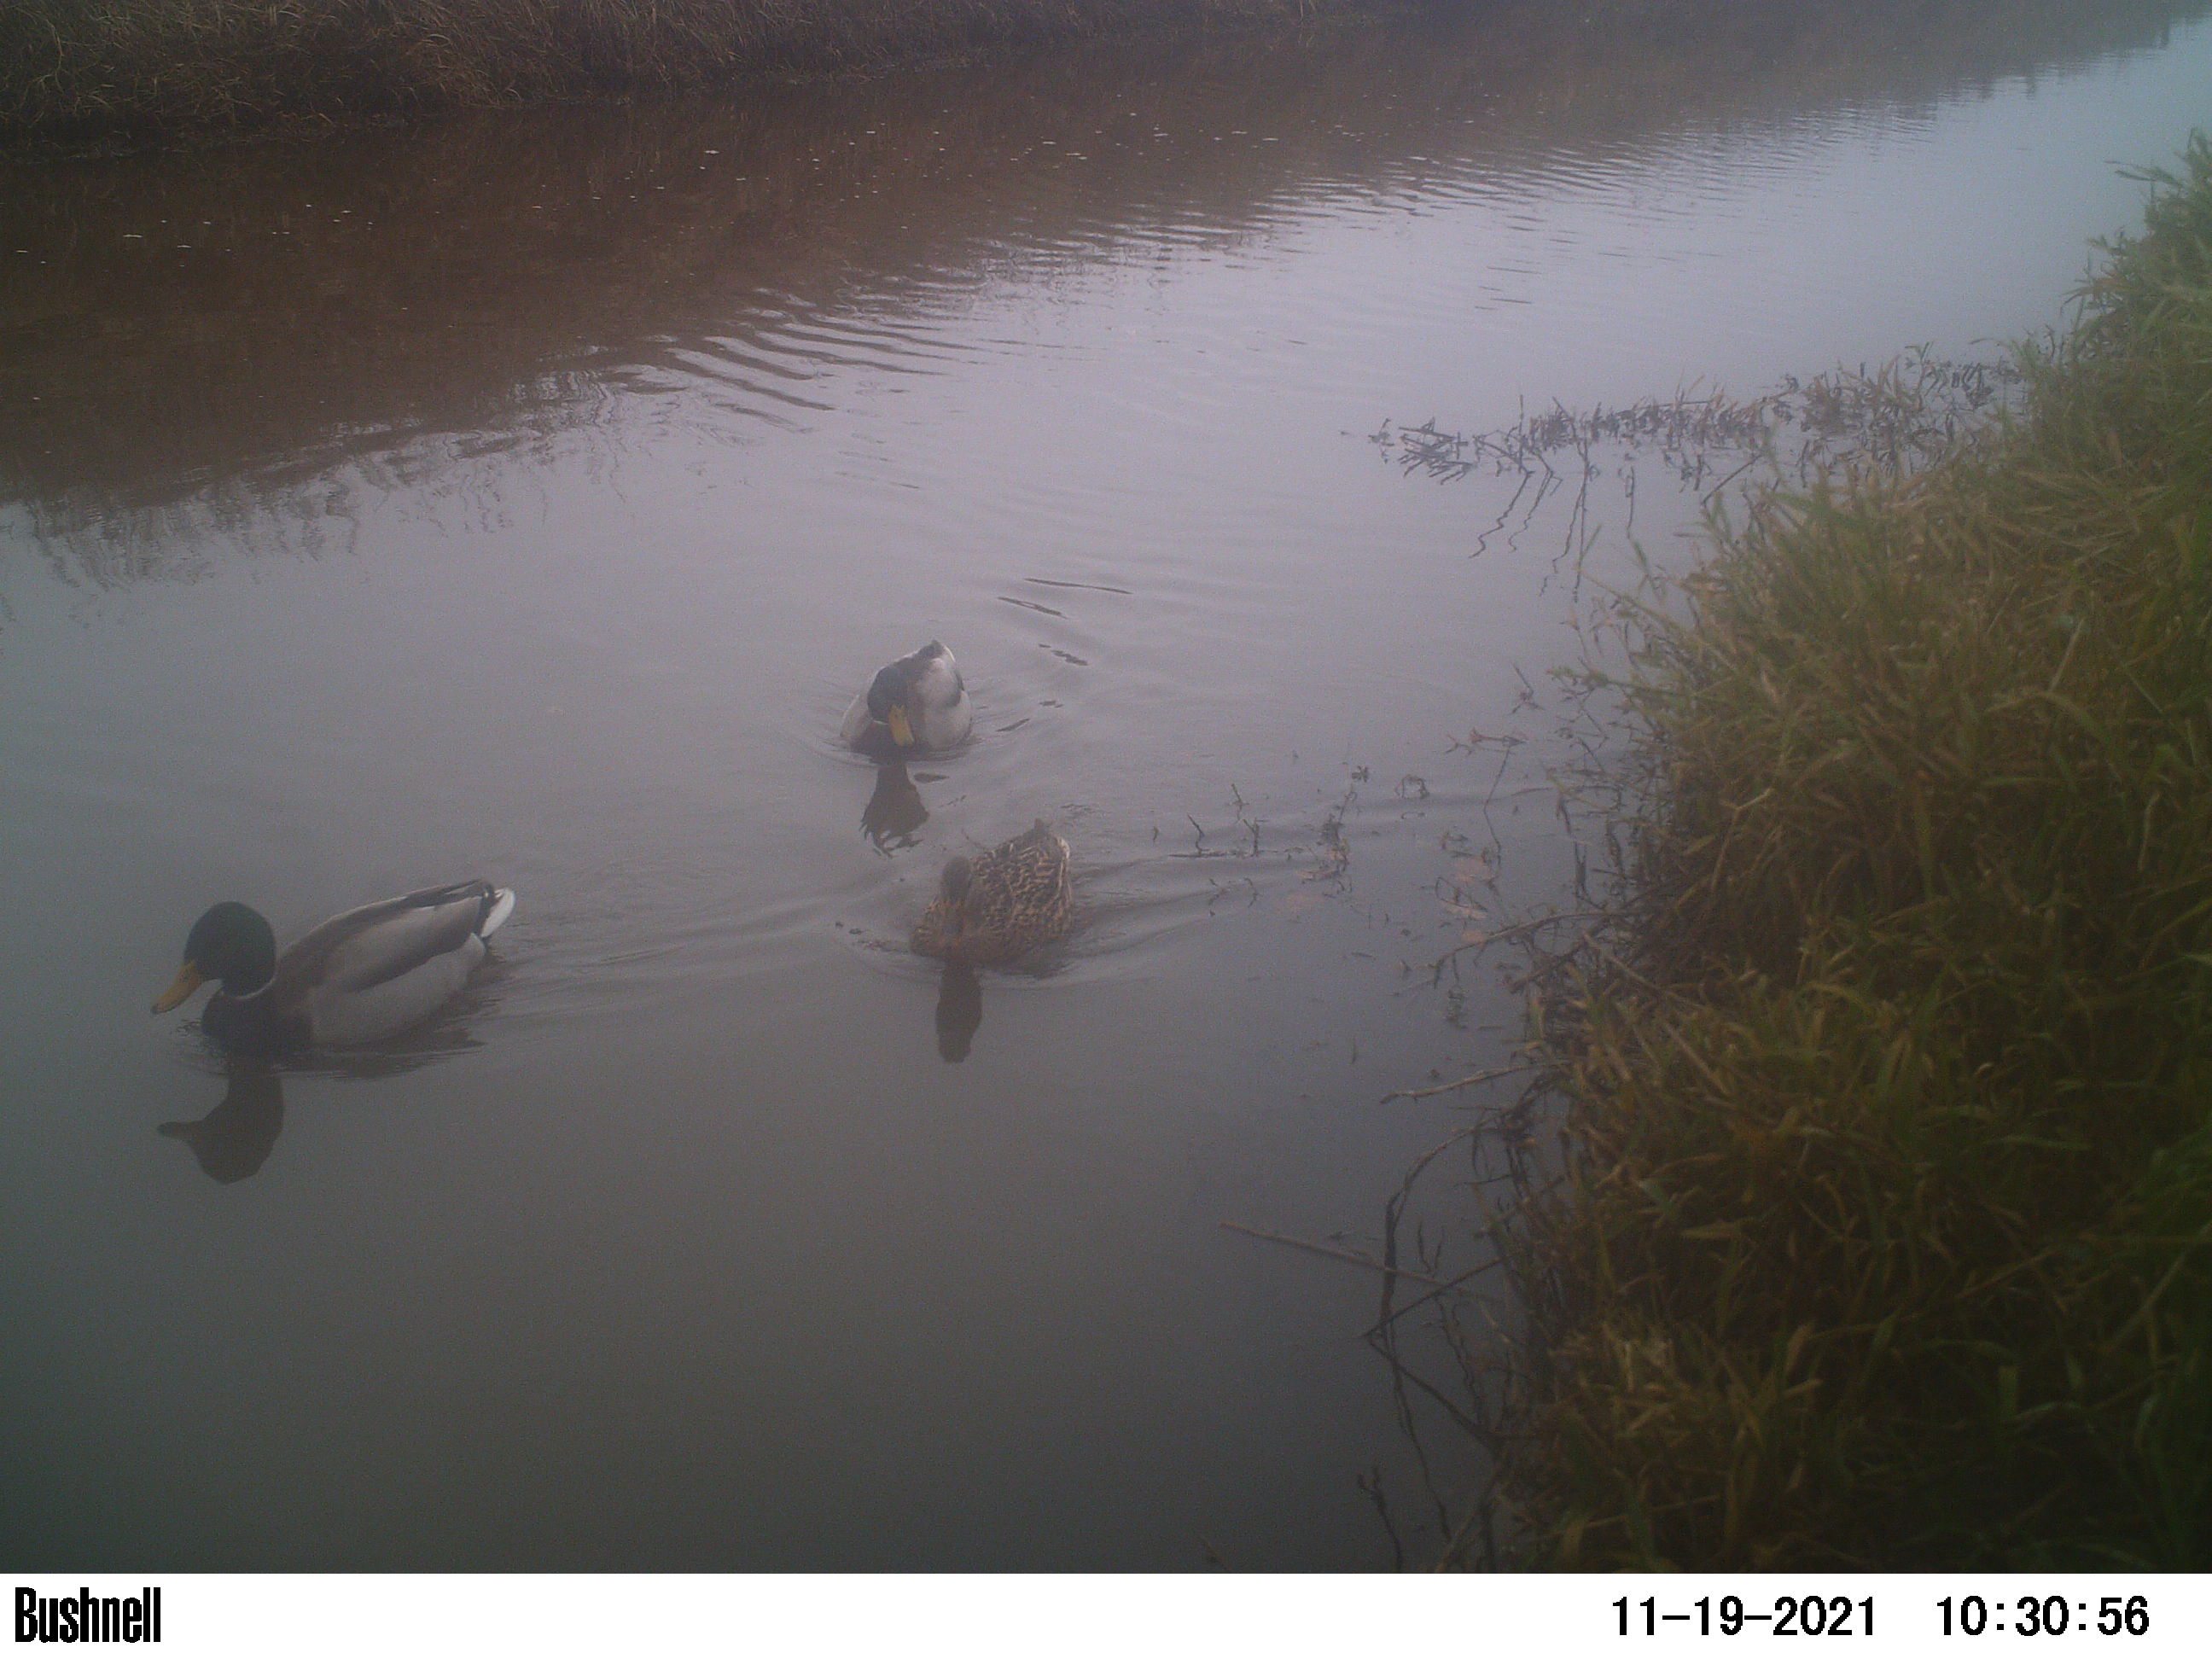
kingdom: Animalia
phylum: Chordata
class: Aves
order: Anseriformes
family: Anatidae
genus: Anas
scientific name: Anas
